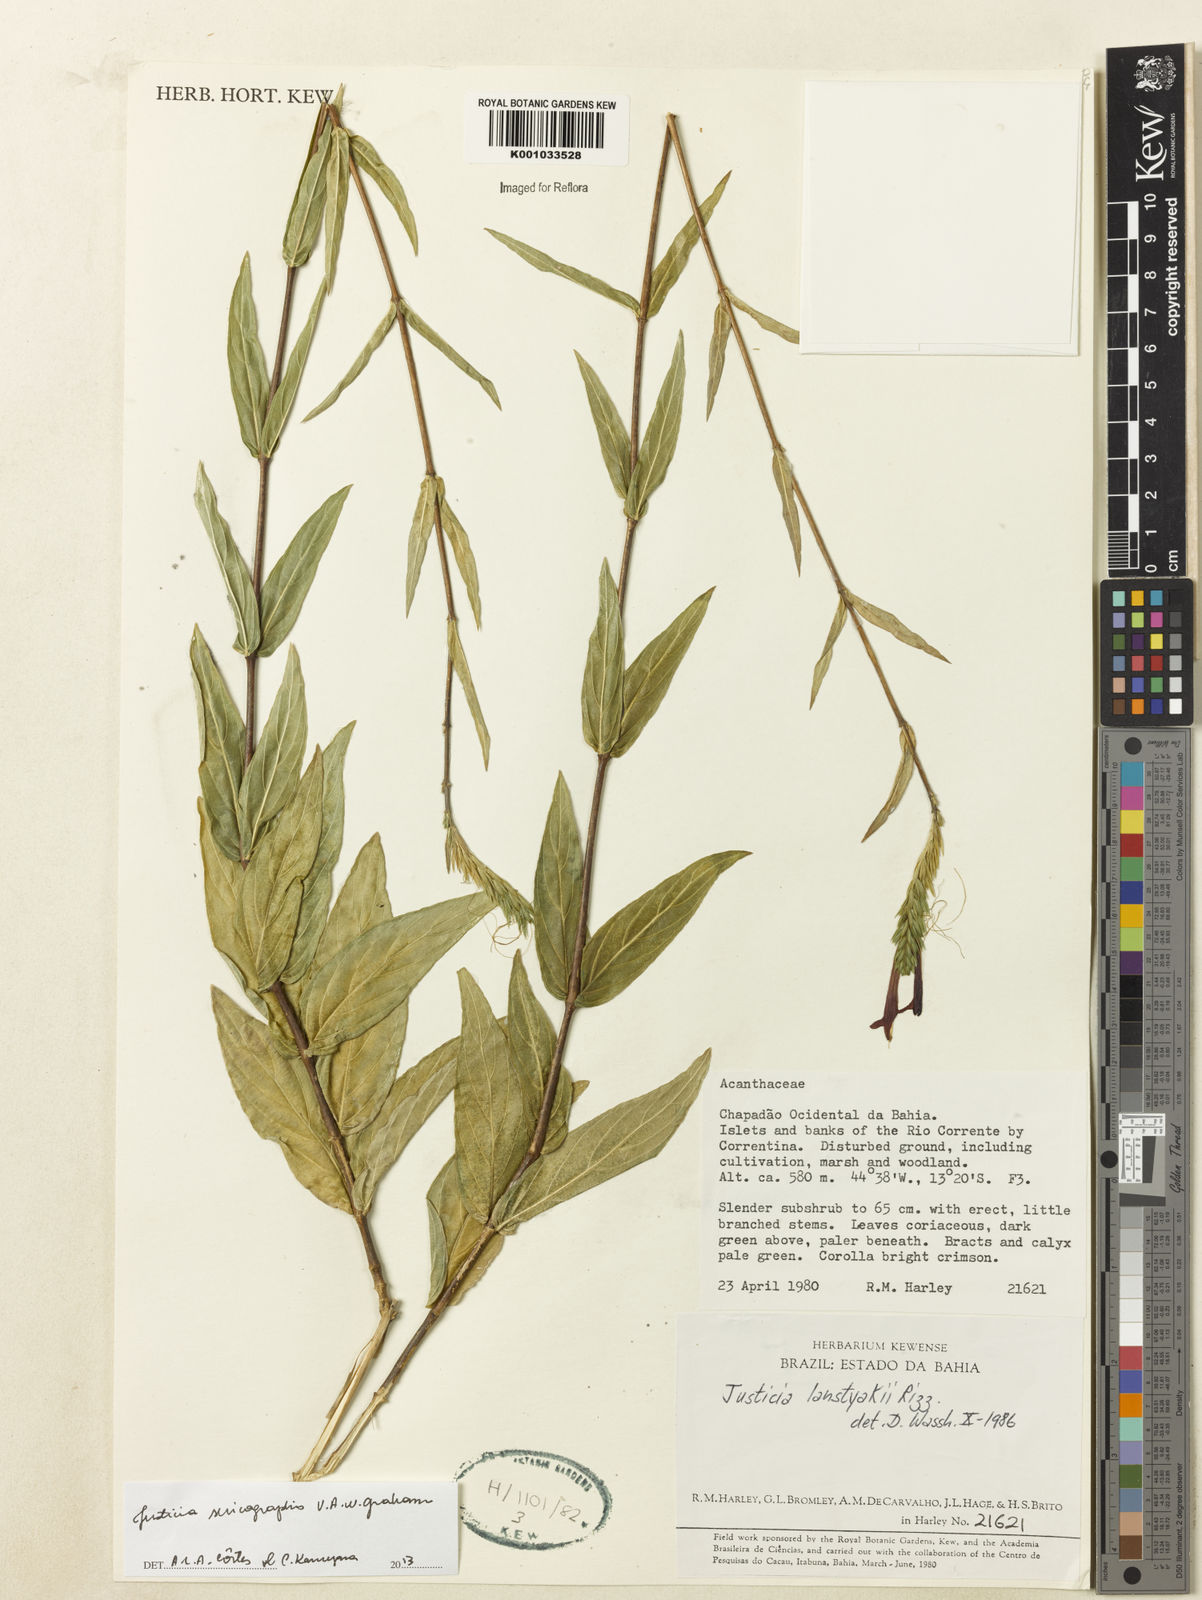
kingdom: Plantae
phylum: Tracheophyta
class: Magnoliopsida
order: Lamiales
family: Acanthaceae
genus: Dianthera
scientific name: Dianthera rigida
